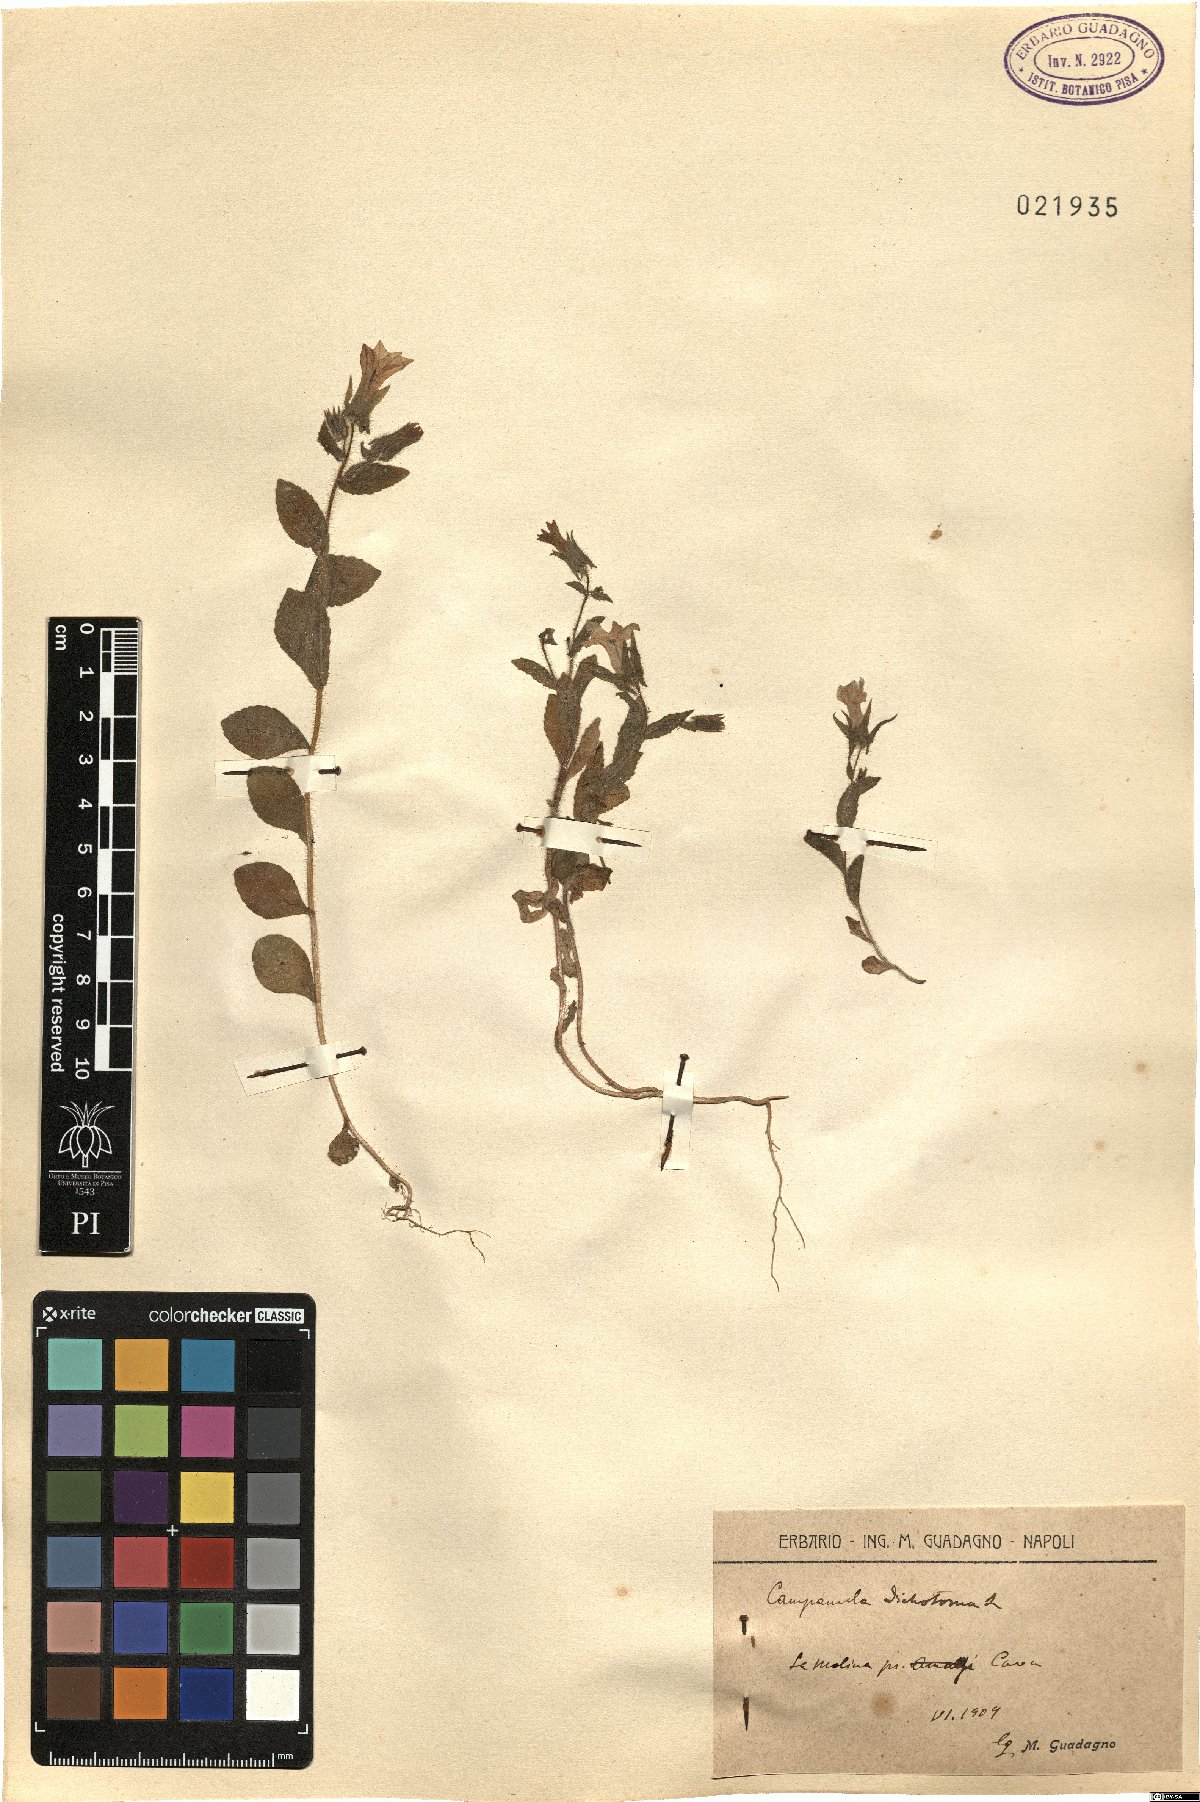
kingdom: Plantae
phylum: Tracheophyta
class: Magnoliopsida
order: Asterales
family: Campanulaceae
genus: Campanula
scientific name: Campanula dichotoma
